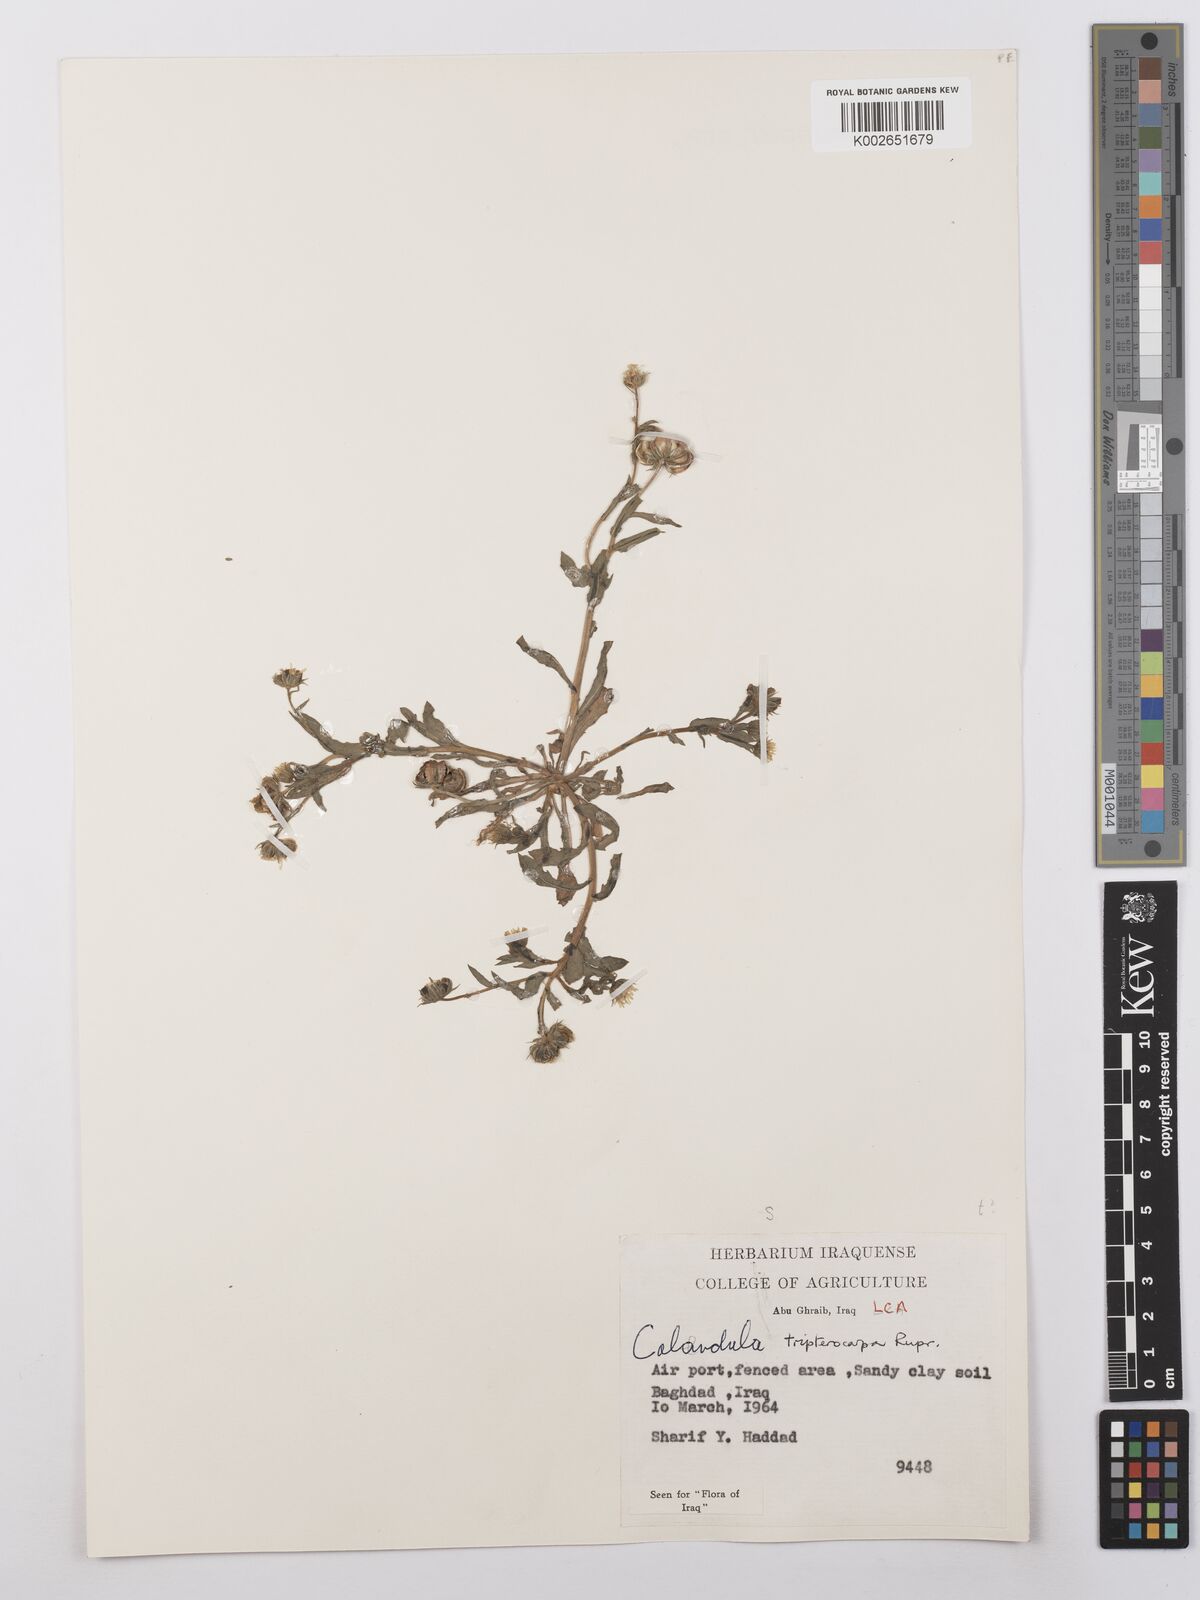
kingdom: Plantae
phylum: Tracheophyta
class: Magnoliopsida
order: Asterales
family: Asteraceae
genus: Calendula
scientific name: Calendula tripterocarpa
